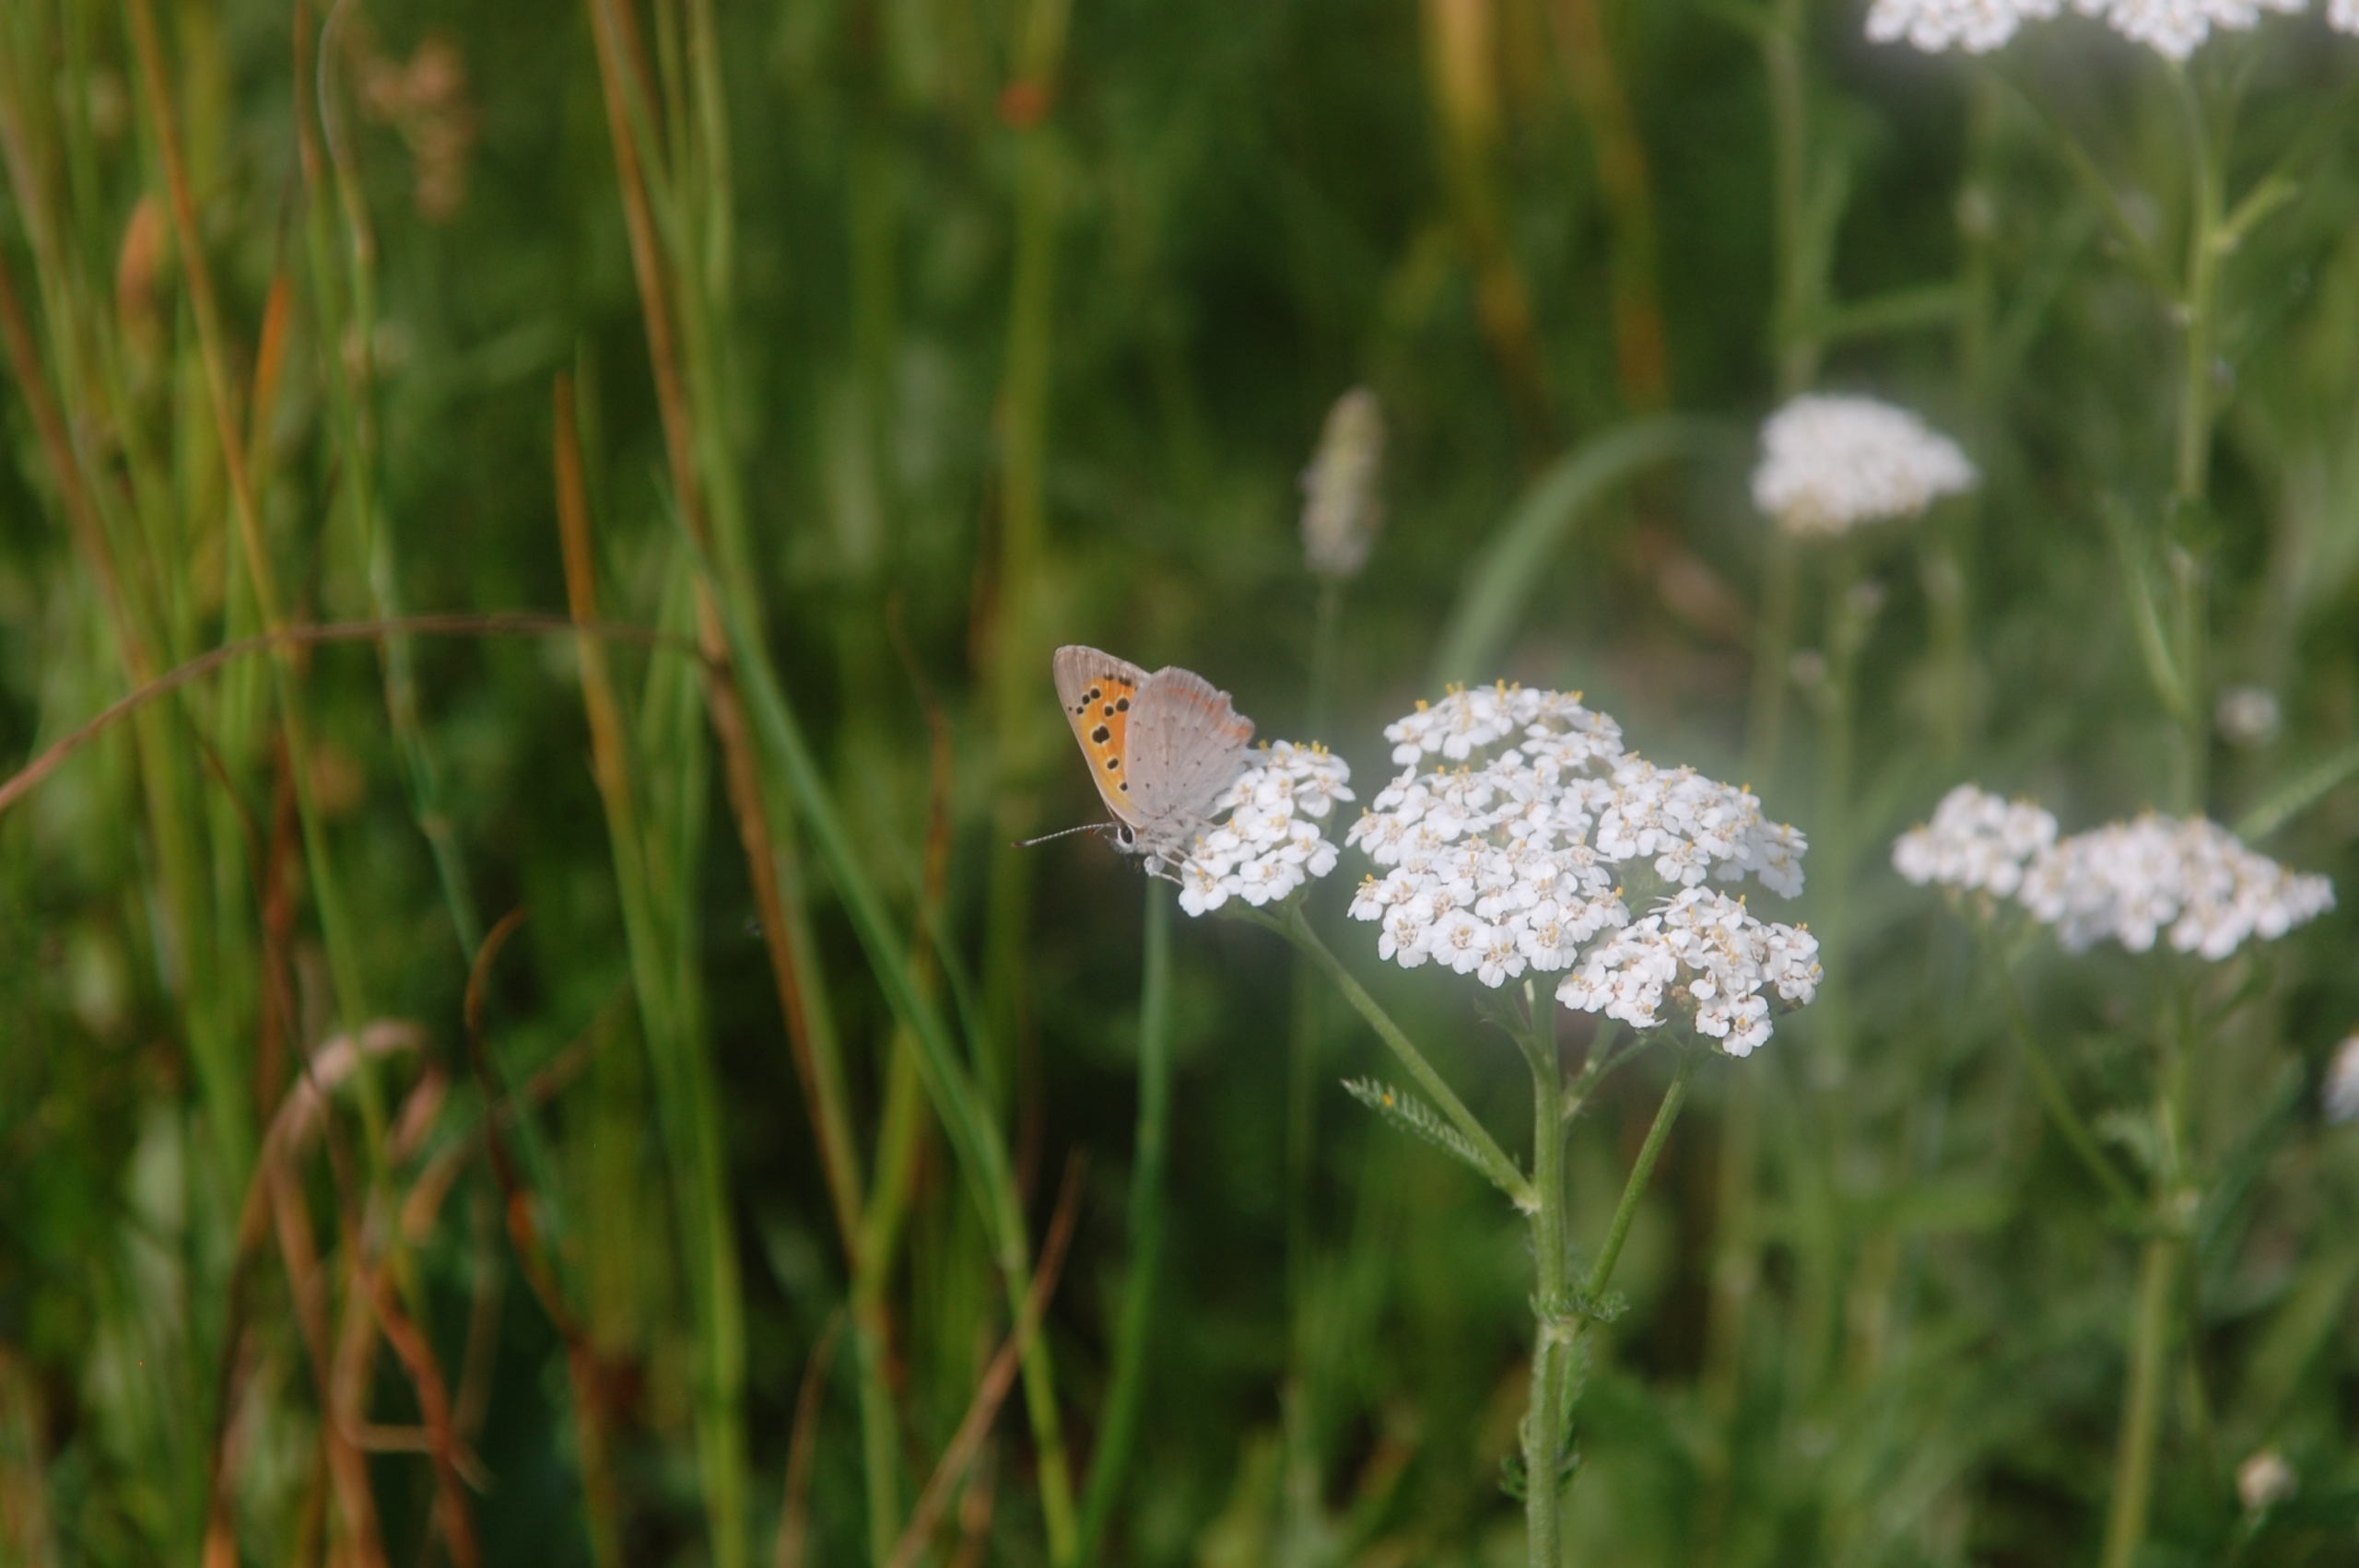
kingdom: Animalia
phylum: Arthropoda
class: Insecta
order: Lepidoptera
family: Lycaenidae
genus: Lycaena
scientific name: Lycaena phlaeas
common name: Lille ildfugl
